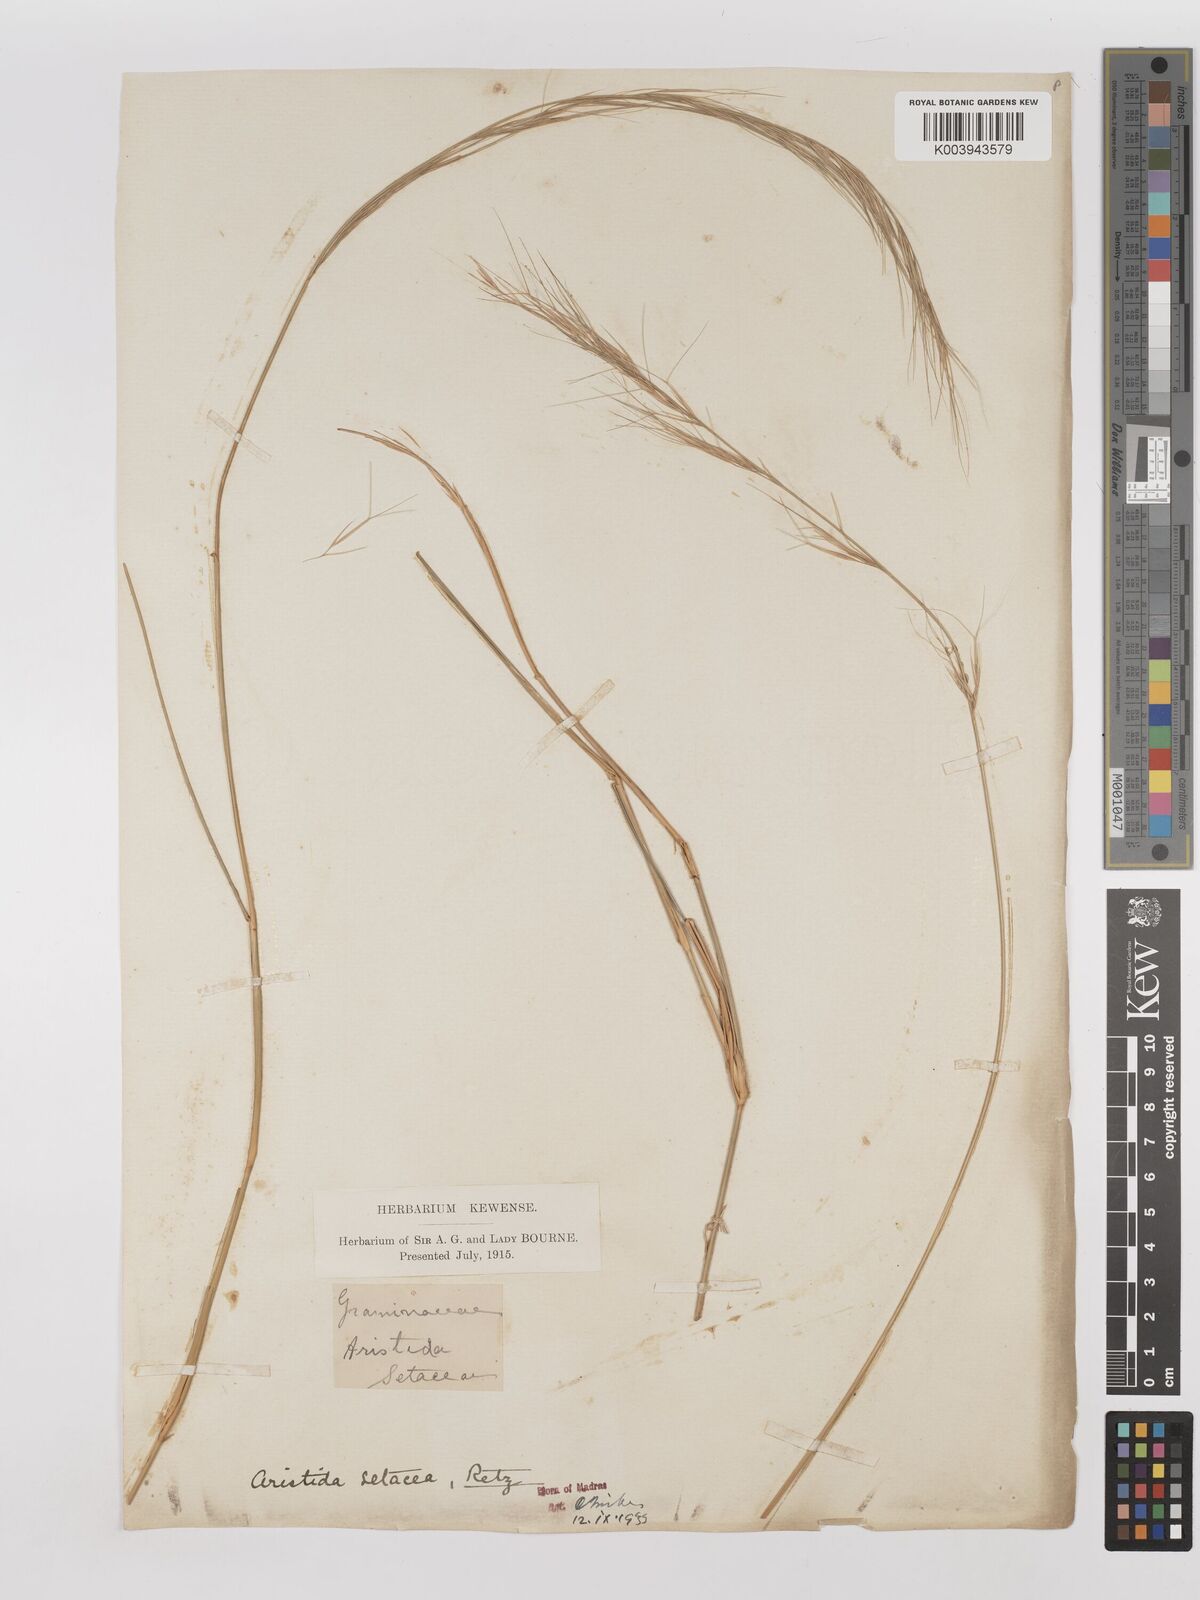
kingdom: Plantae
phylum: Tracheophyta
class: Liliopsida
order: Poales
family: Poaceae
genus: Aristida
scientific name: Aristida setacea
